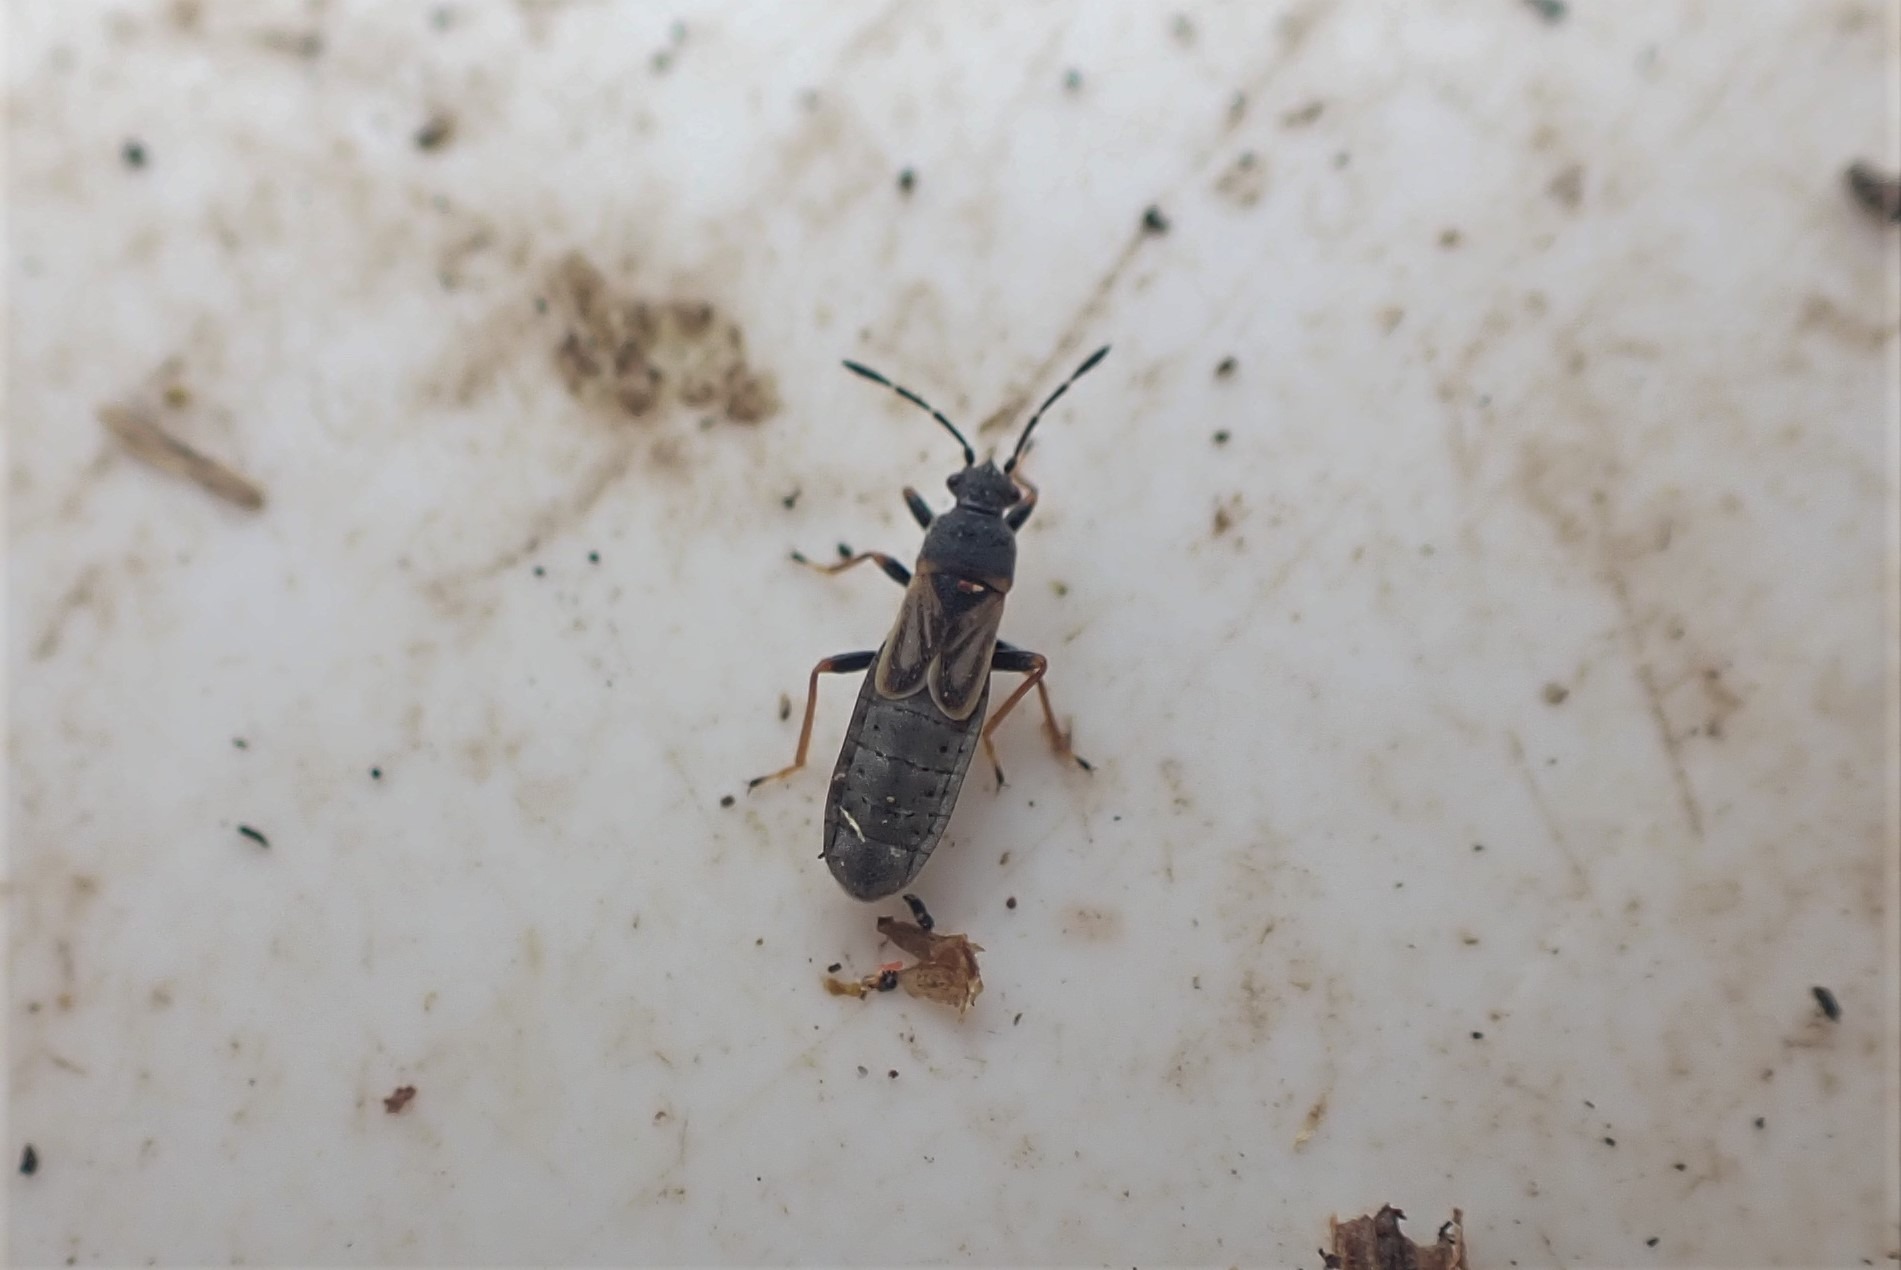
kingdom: Animalia
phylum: Arthropoda
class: Insecta
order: Hemiptera
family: Blissidae
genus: Ischnodemus
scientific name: Ischnodemus sabuleti
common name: Smaltæge
